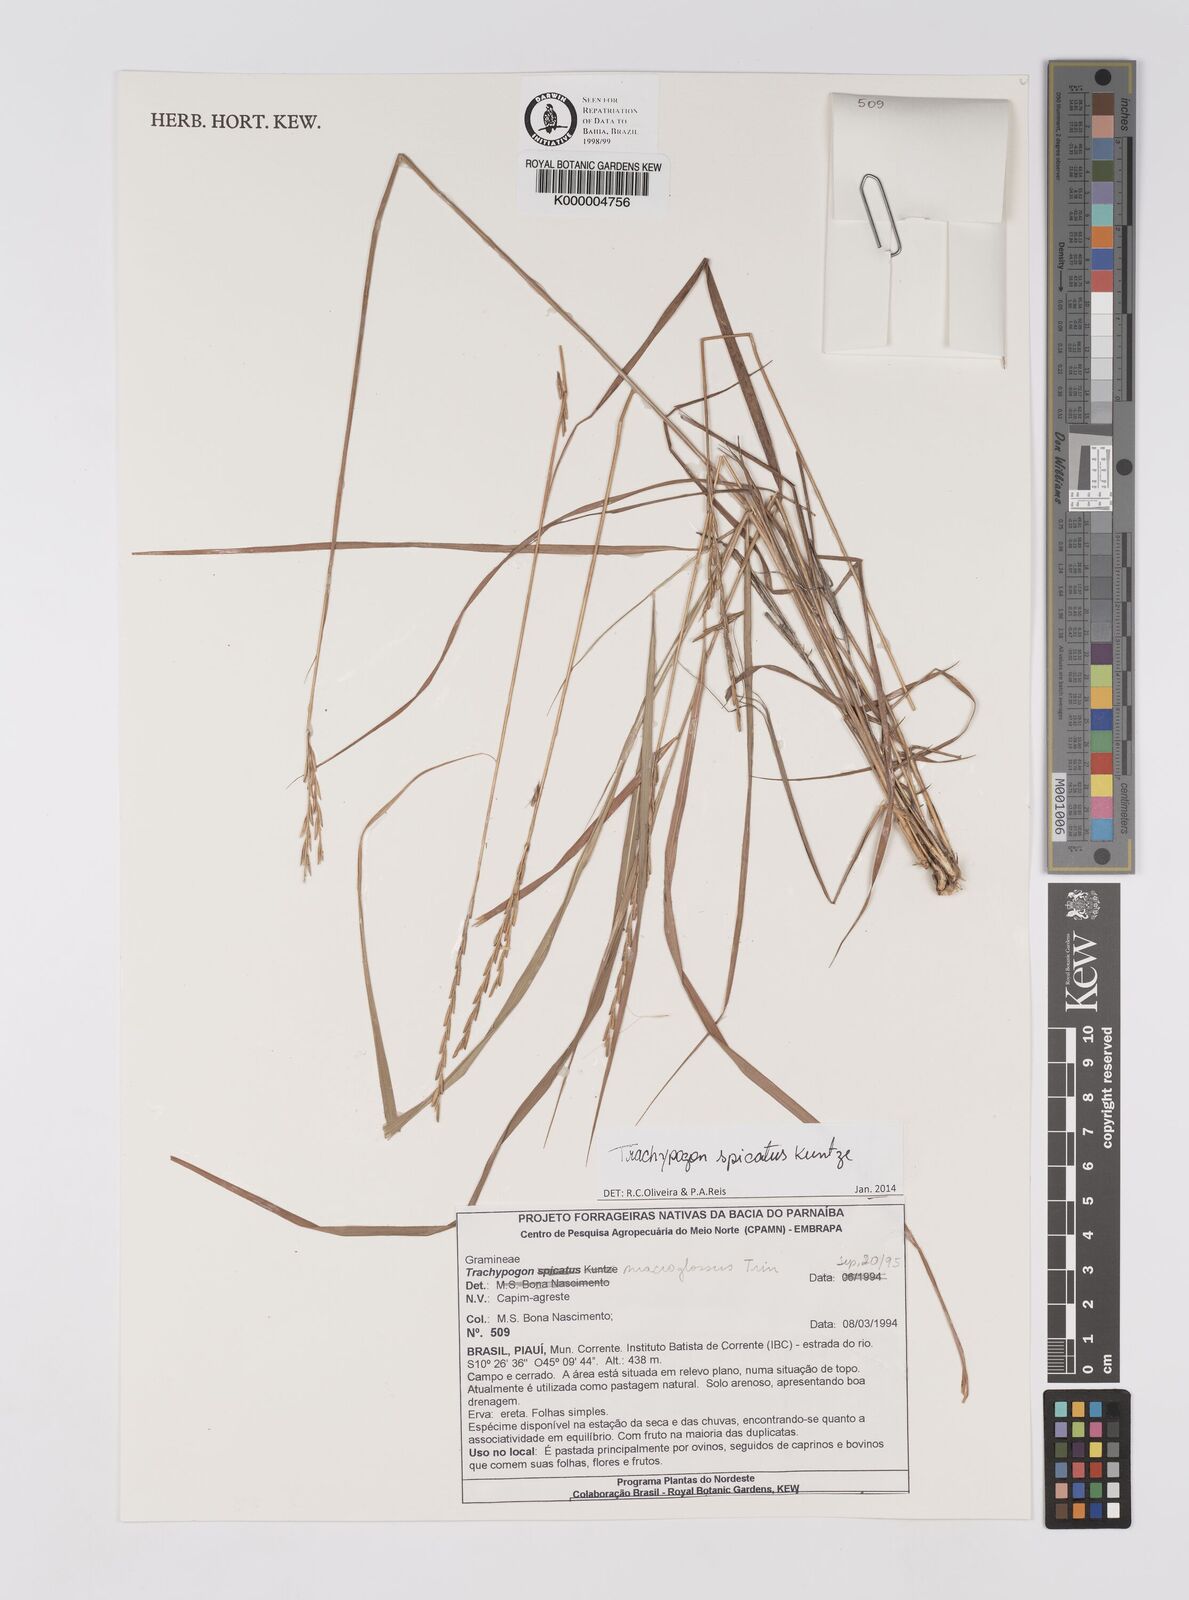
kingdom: Plantae
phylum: Tracheophyta
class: Liliopsida
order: Poales
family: Poaceae
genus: Trachypogon
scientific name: Trachypogon spicatus
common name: Crinkle-awn
